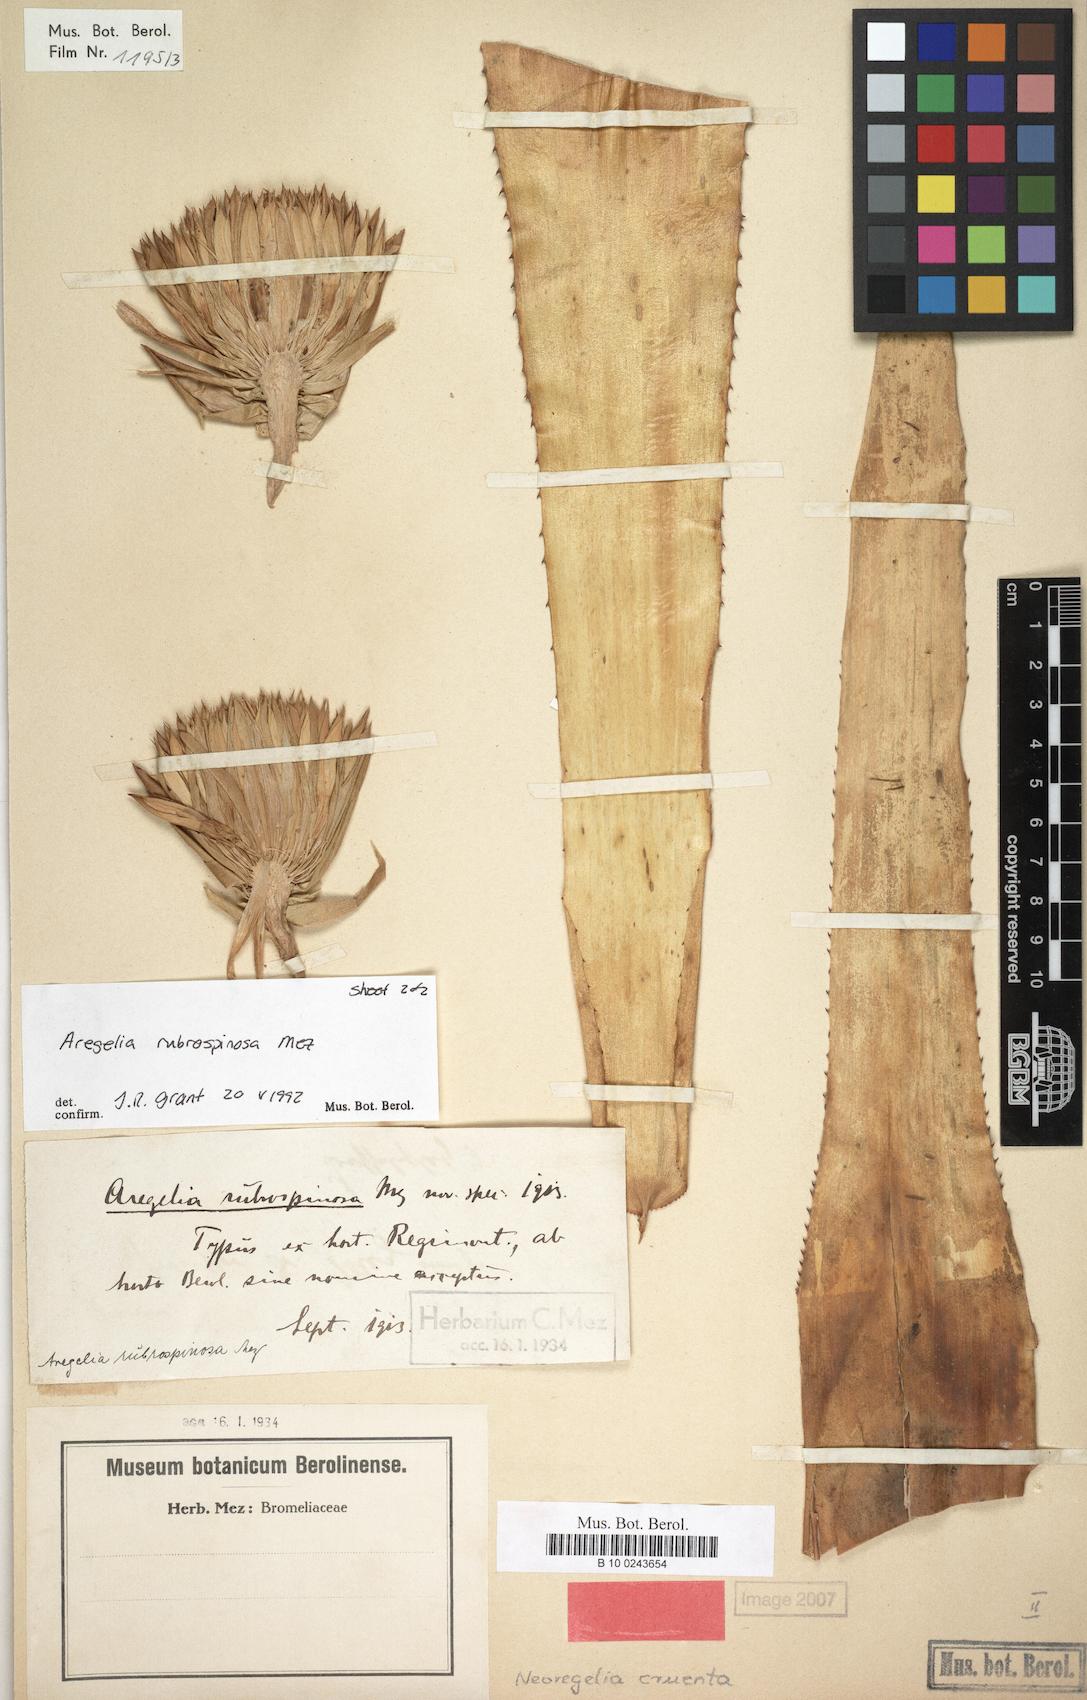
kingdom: Plantae
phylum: Tracheophyta
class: Liliopsida
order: Poales
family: Bromeliaceae
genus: Neoregelia
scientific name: Neoregelia cruenta
